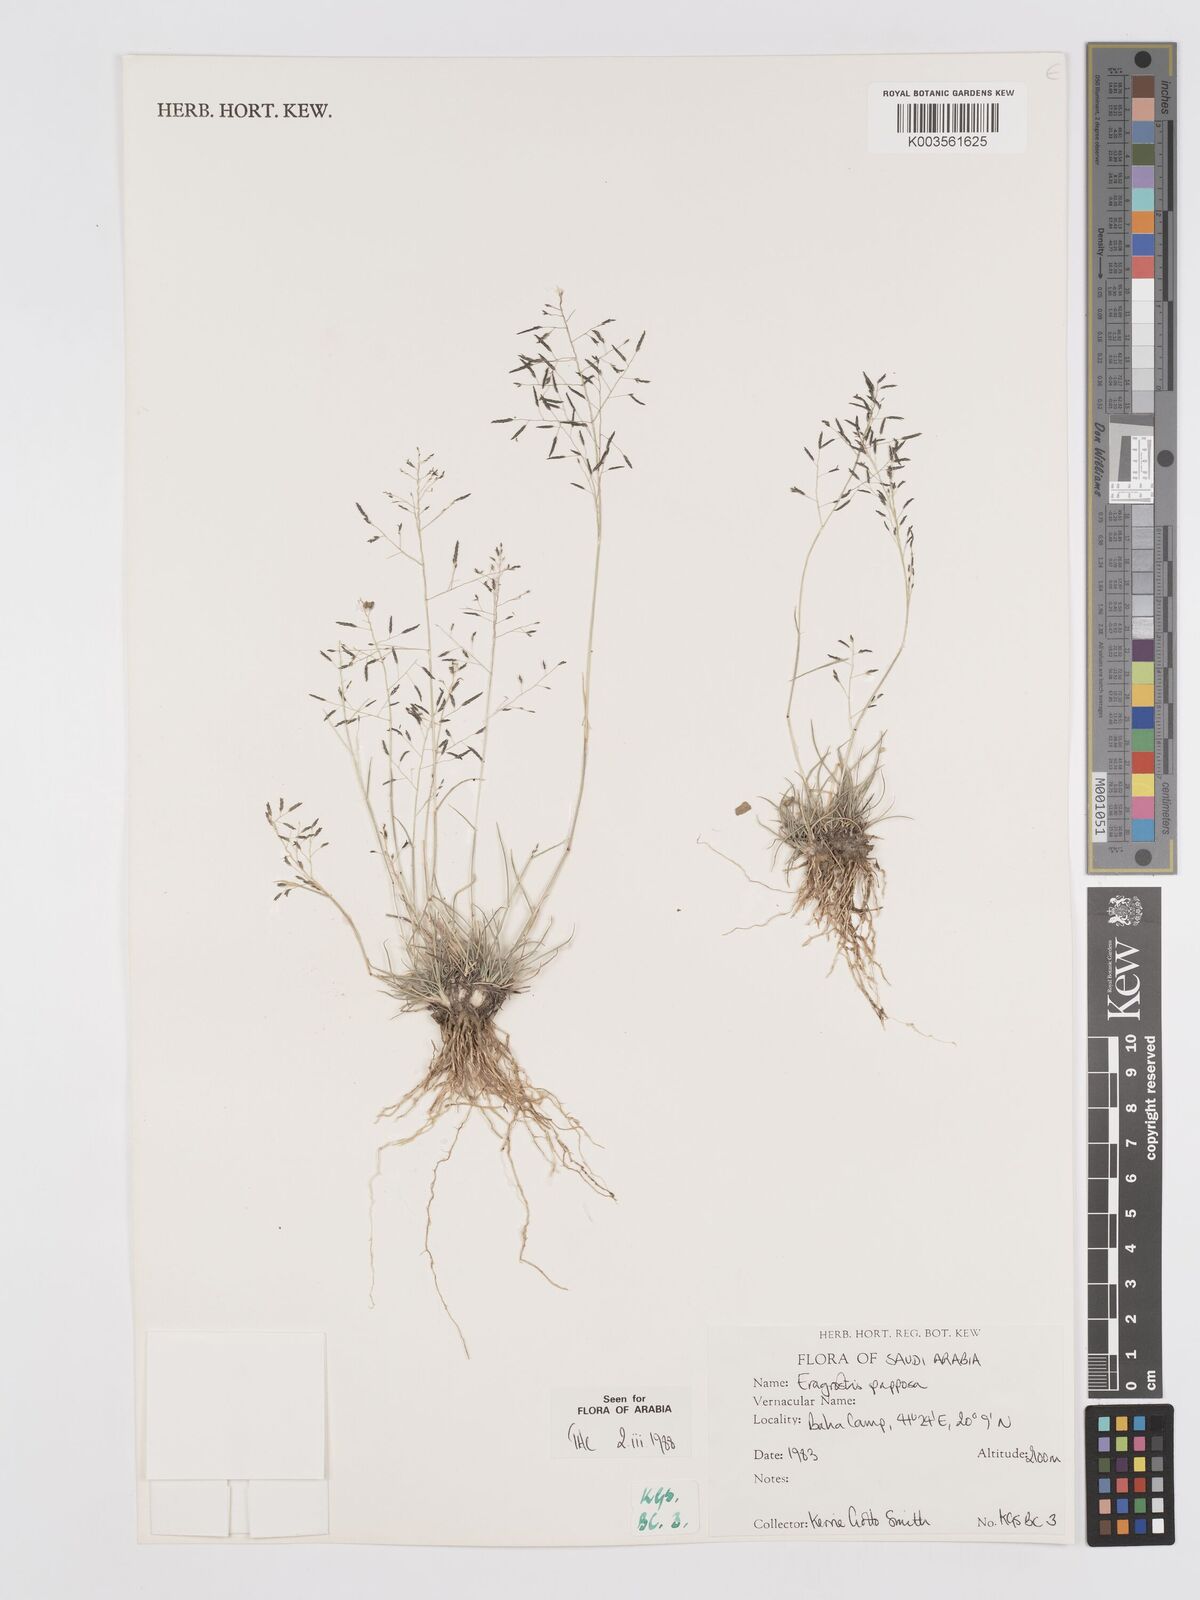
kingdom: Plantae
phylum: Tracheophyta
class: Liliopsida
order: Poales
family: Poaceae
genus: Eragrostis
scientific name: Eragrostis papposa
